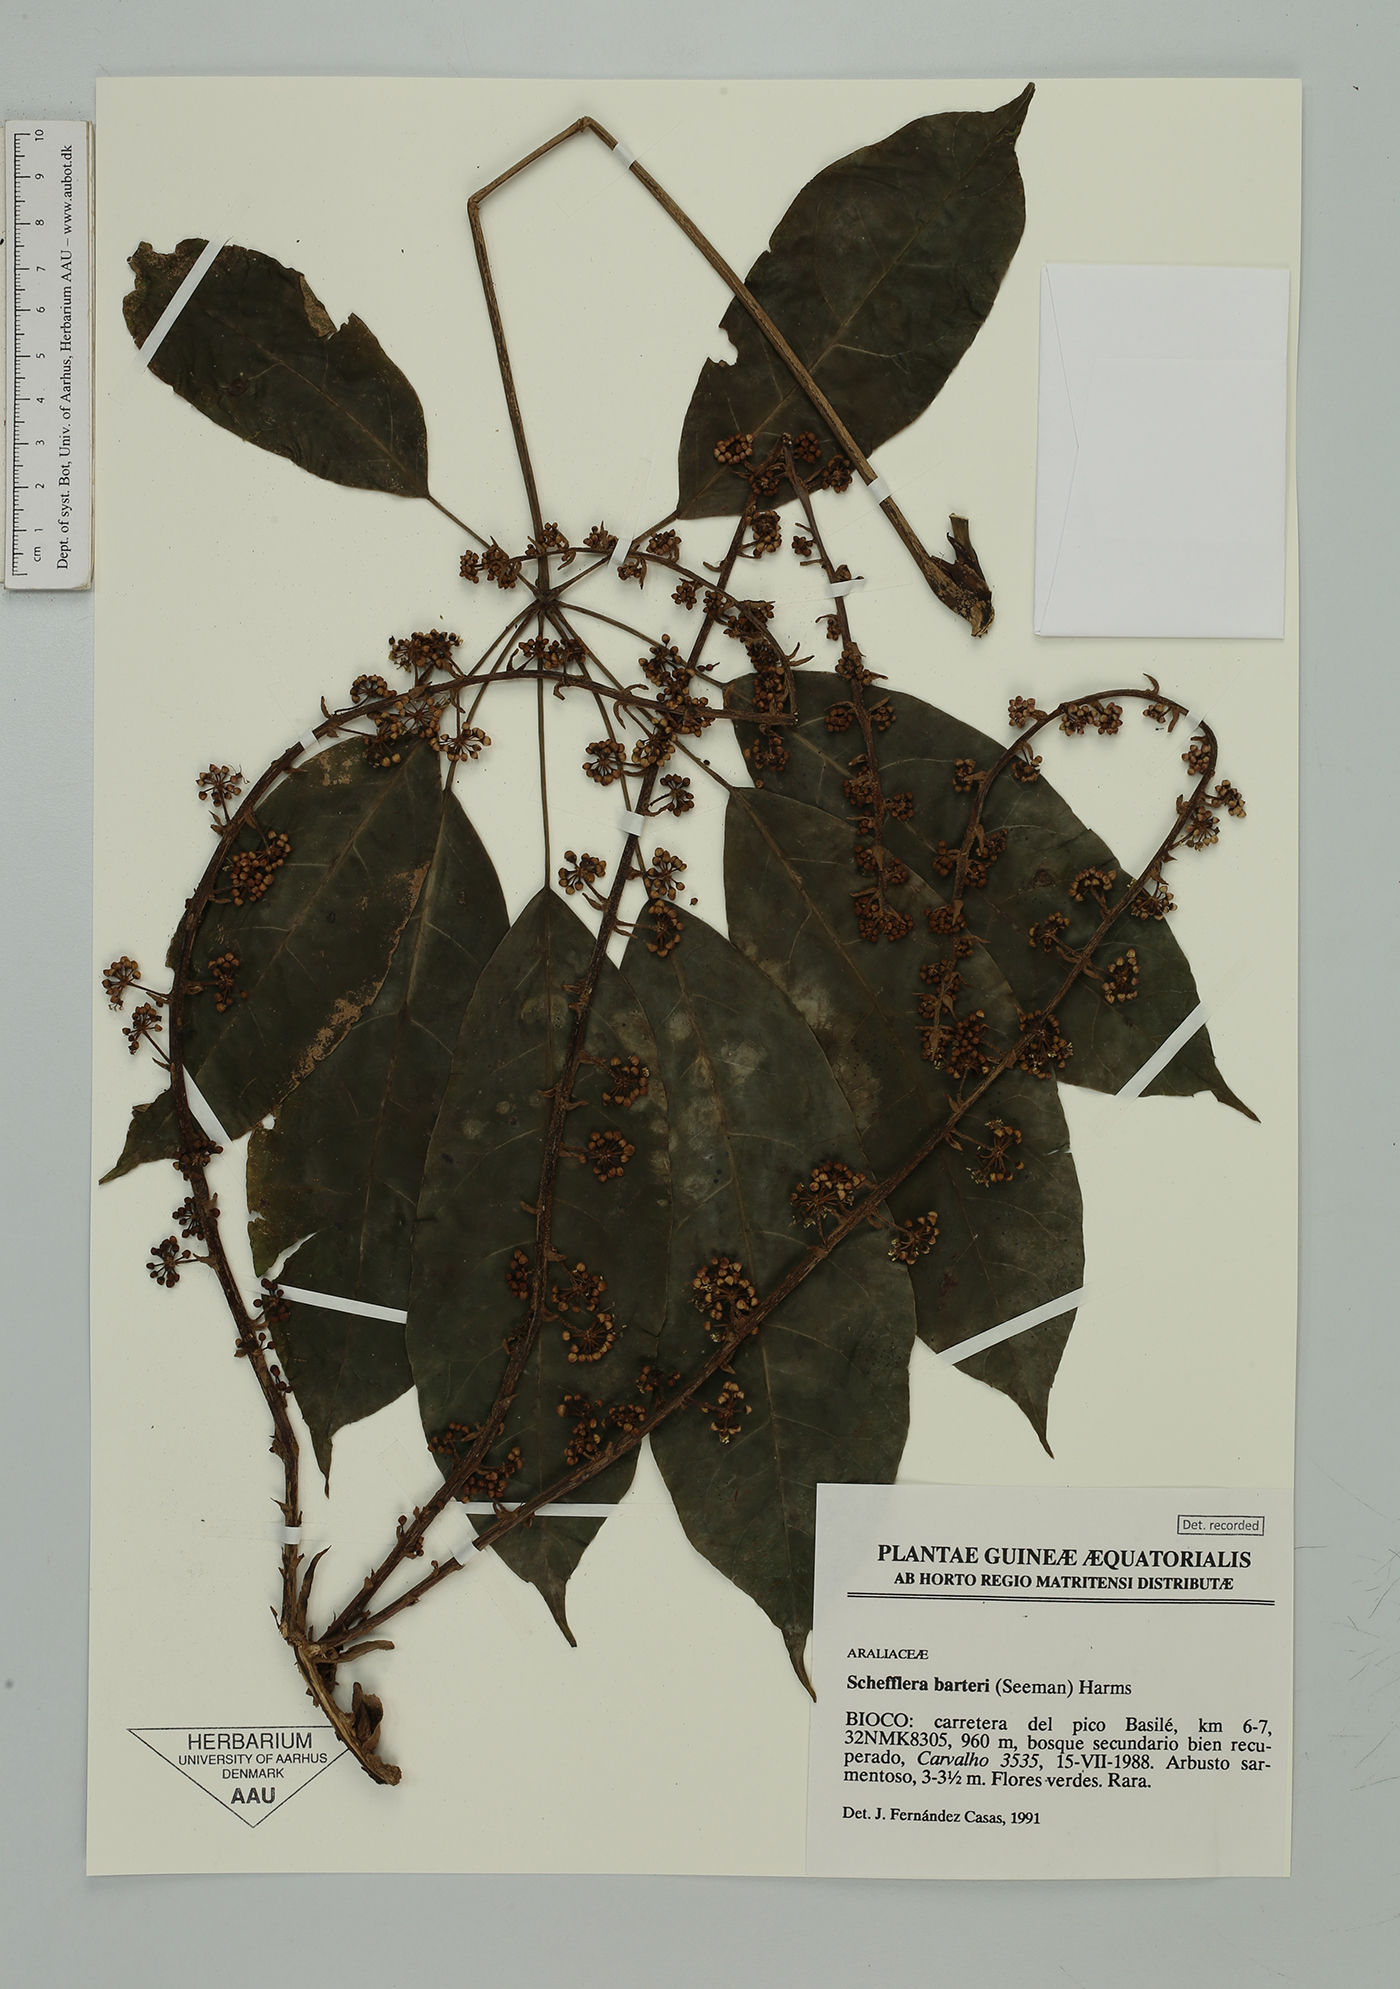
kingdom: Plantae
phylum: Tracheophyta
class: Magnoliopsida
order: Apiales
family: Araliaceae
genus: Astropanax
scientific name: Astropanax barteri
